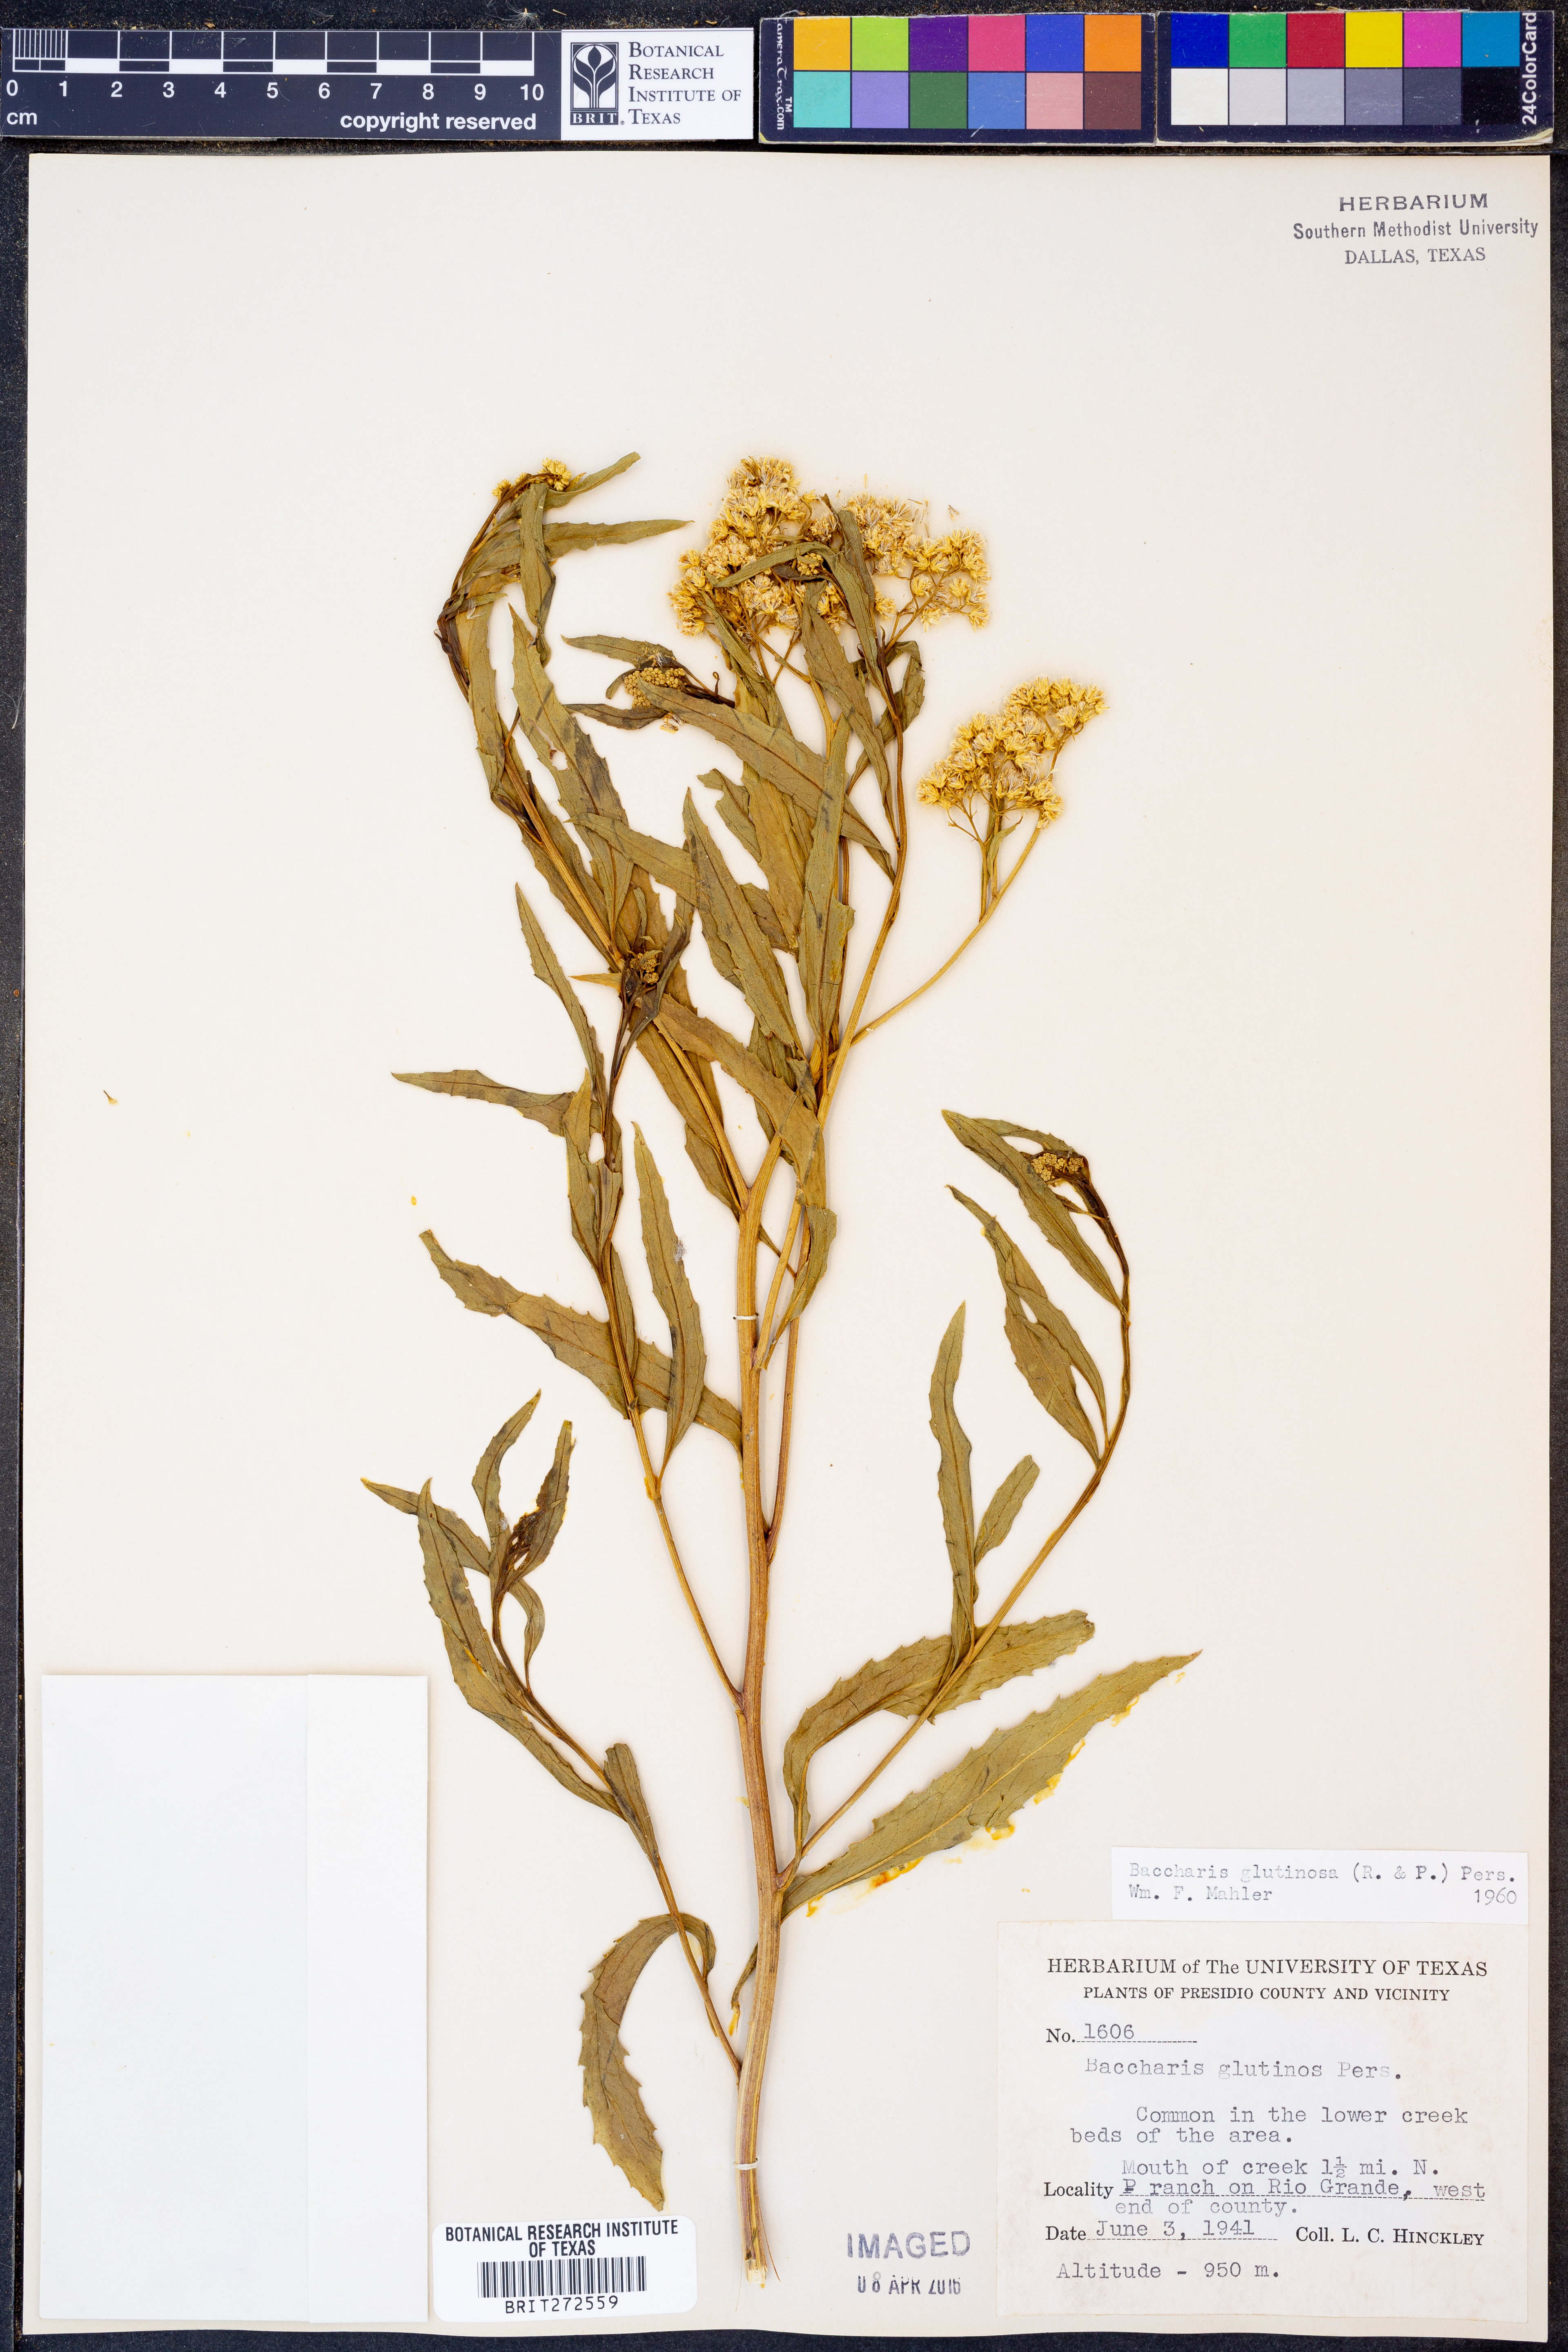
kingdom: Plantae
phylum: Tracheophyta
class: Magnoliopsida
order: Asterales
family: Asteraceae
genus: Baccharis
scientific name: Baccharis glutinosa
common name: Saltmarsh baccharis
